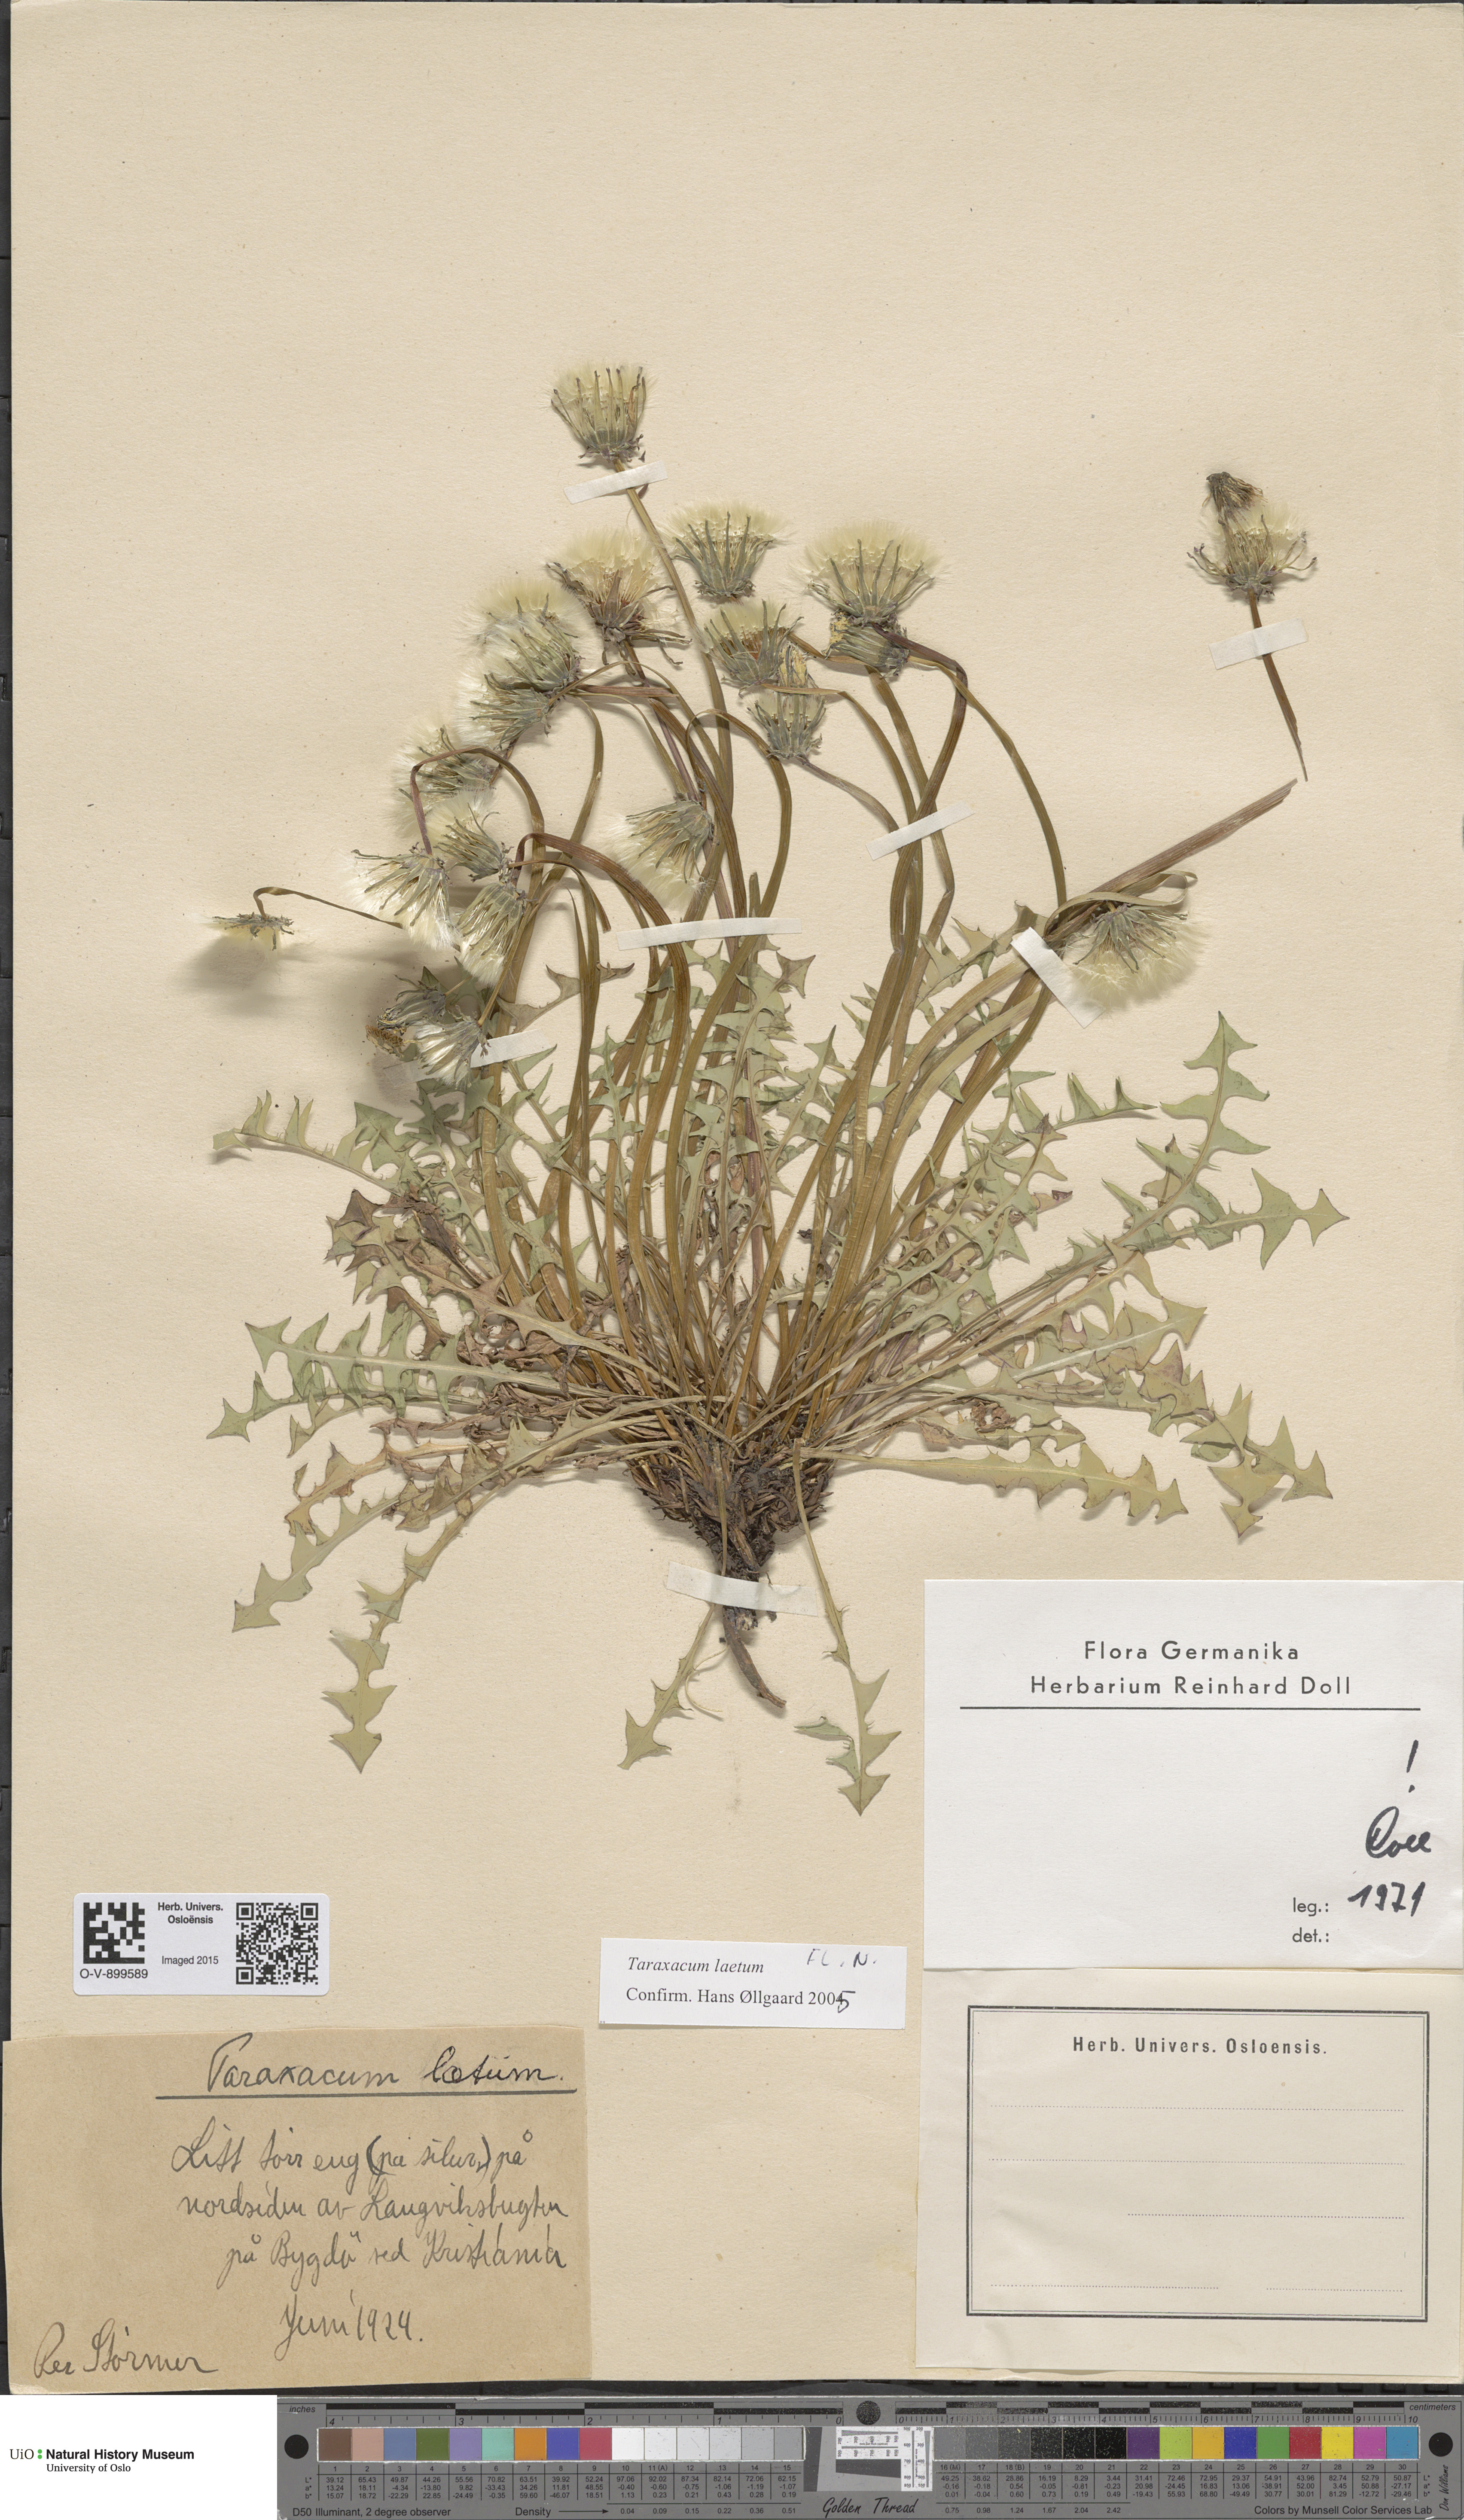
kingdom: Plantae
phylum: Tracheophyta
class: Magnoliopsida
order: Asterales
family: Asteraceae
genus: Taraxacum
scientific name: Taraxacum laetum
